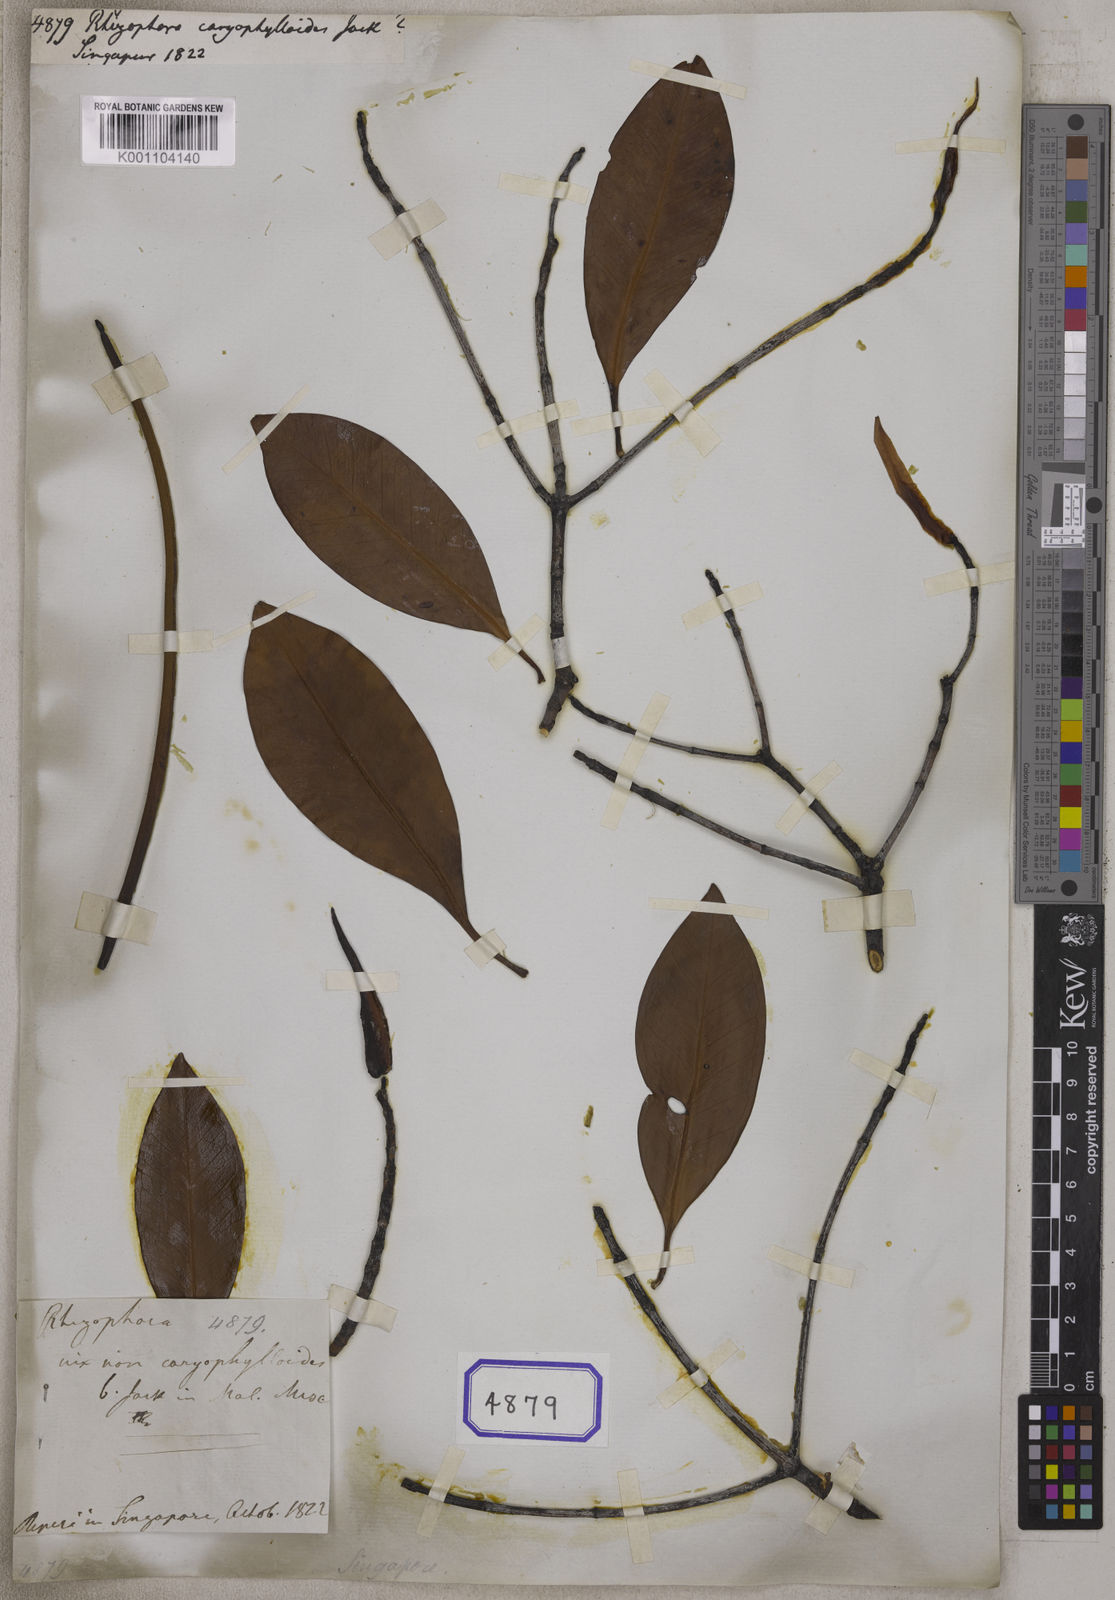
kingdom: Plantae
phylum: Tracheophyta
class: Magnoliopsida
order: Malpighiales
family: Rhizophoraceae
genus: Rhizophora
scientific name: Rhizophora
